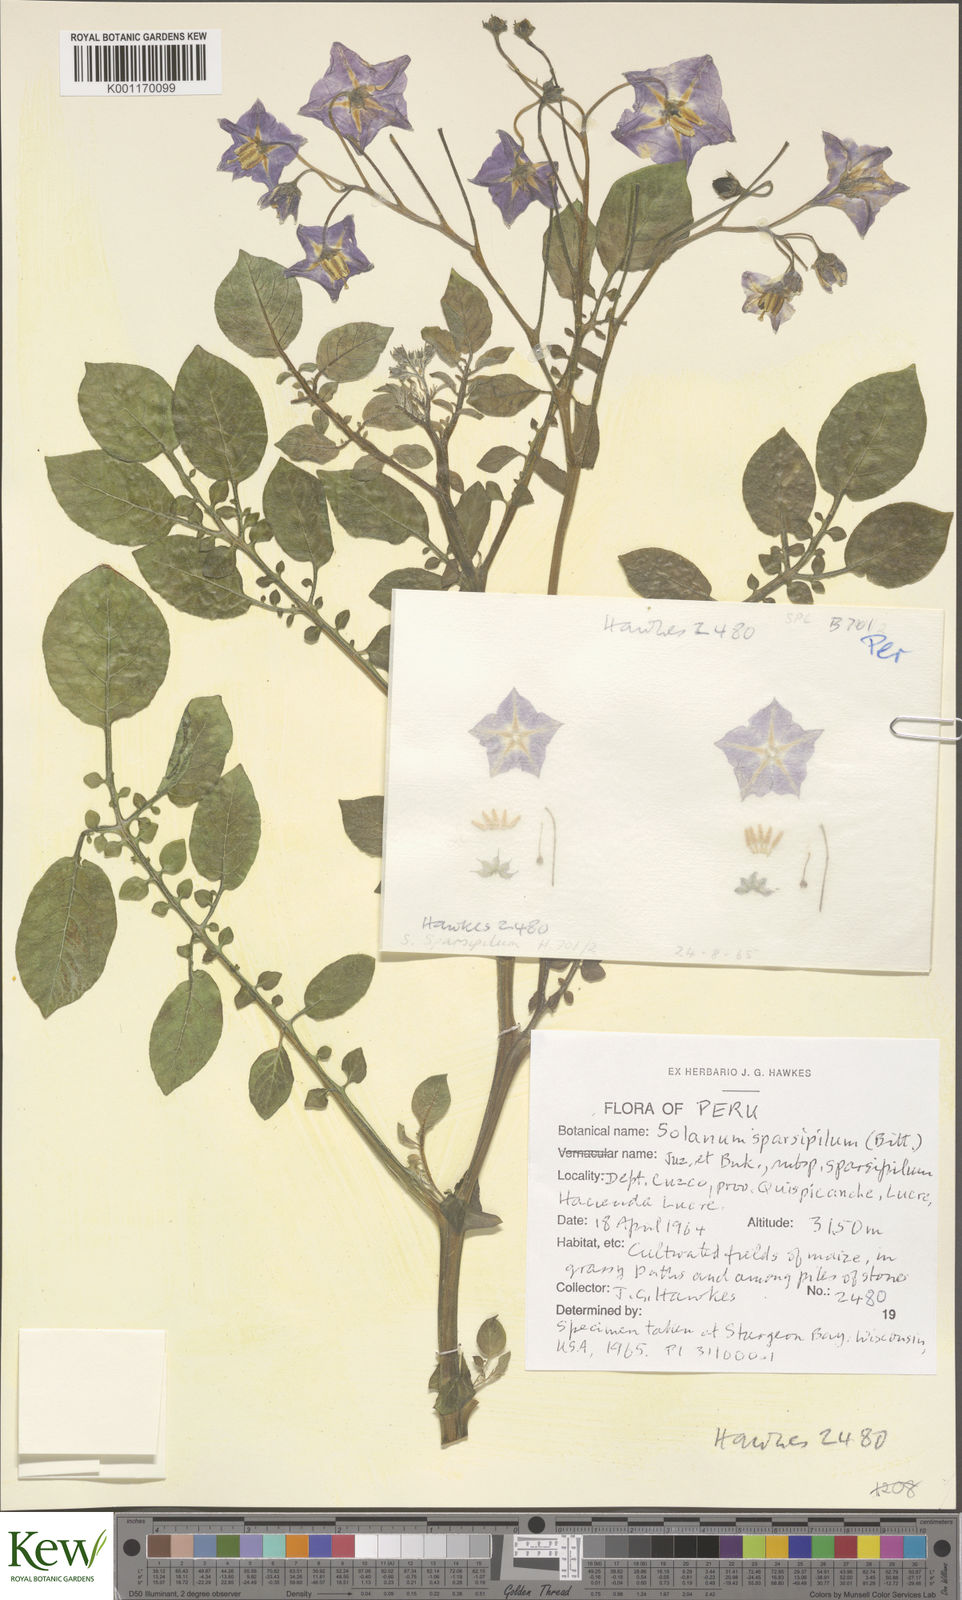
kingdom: Plantae
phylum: Tracheophyta
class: Magnoliopsida
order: Solanales
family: Solanaceae
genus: Solanum
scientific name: Solanum brevicaule
